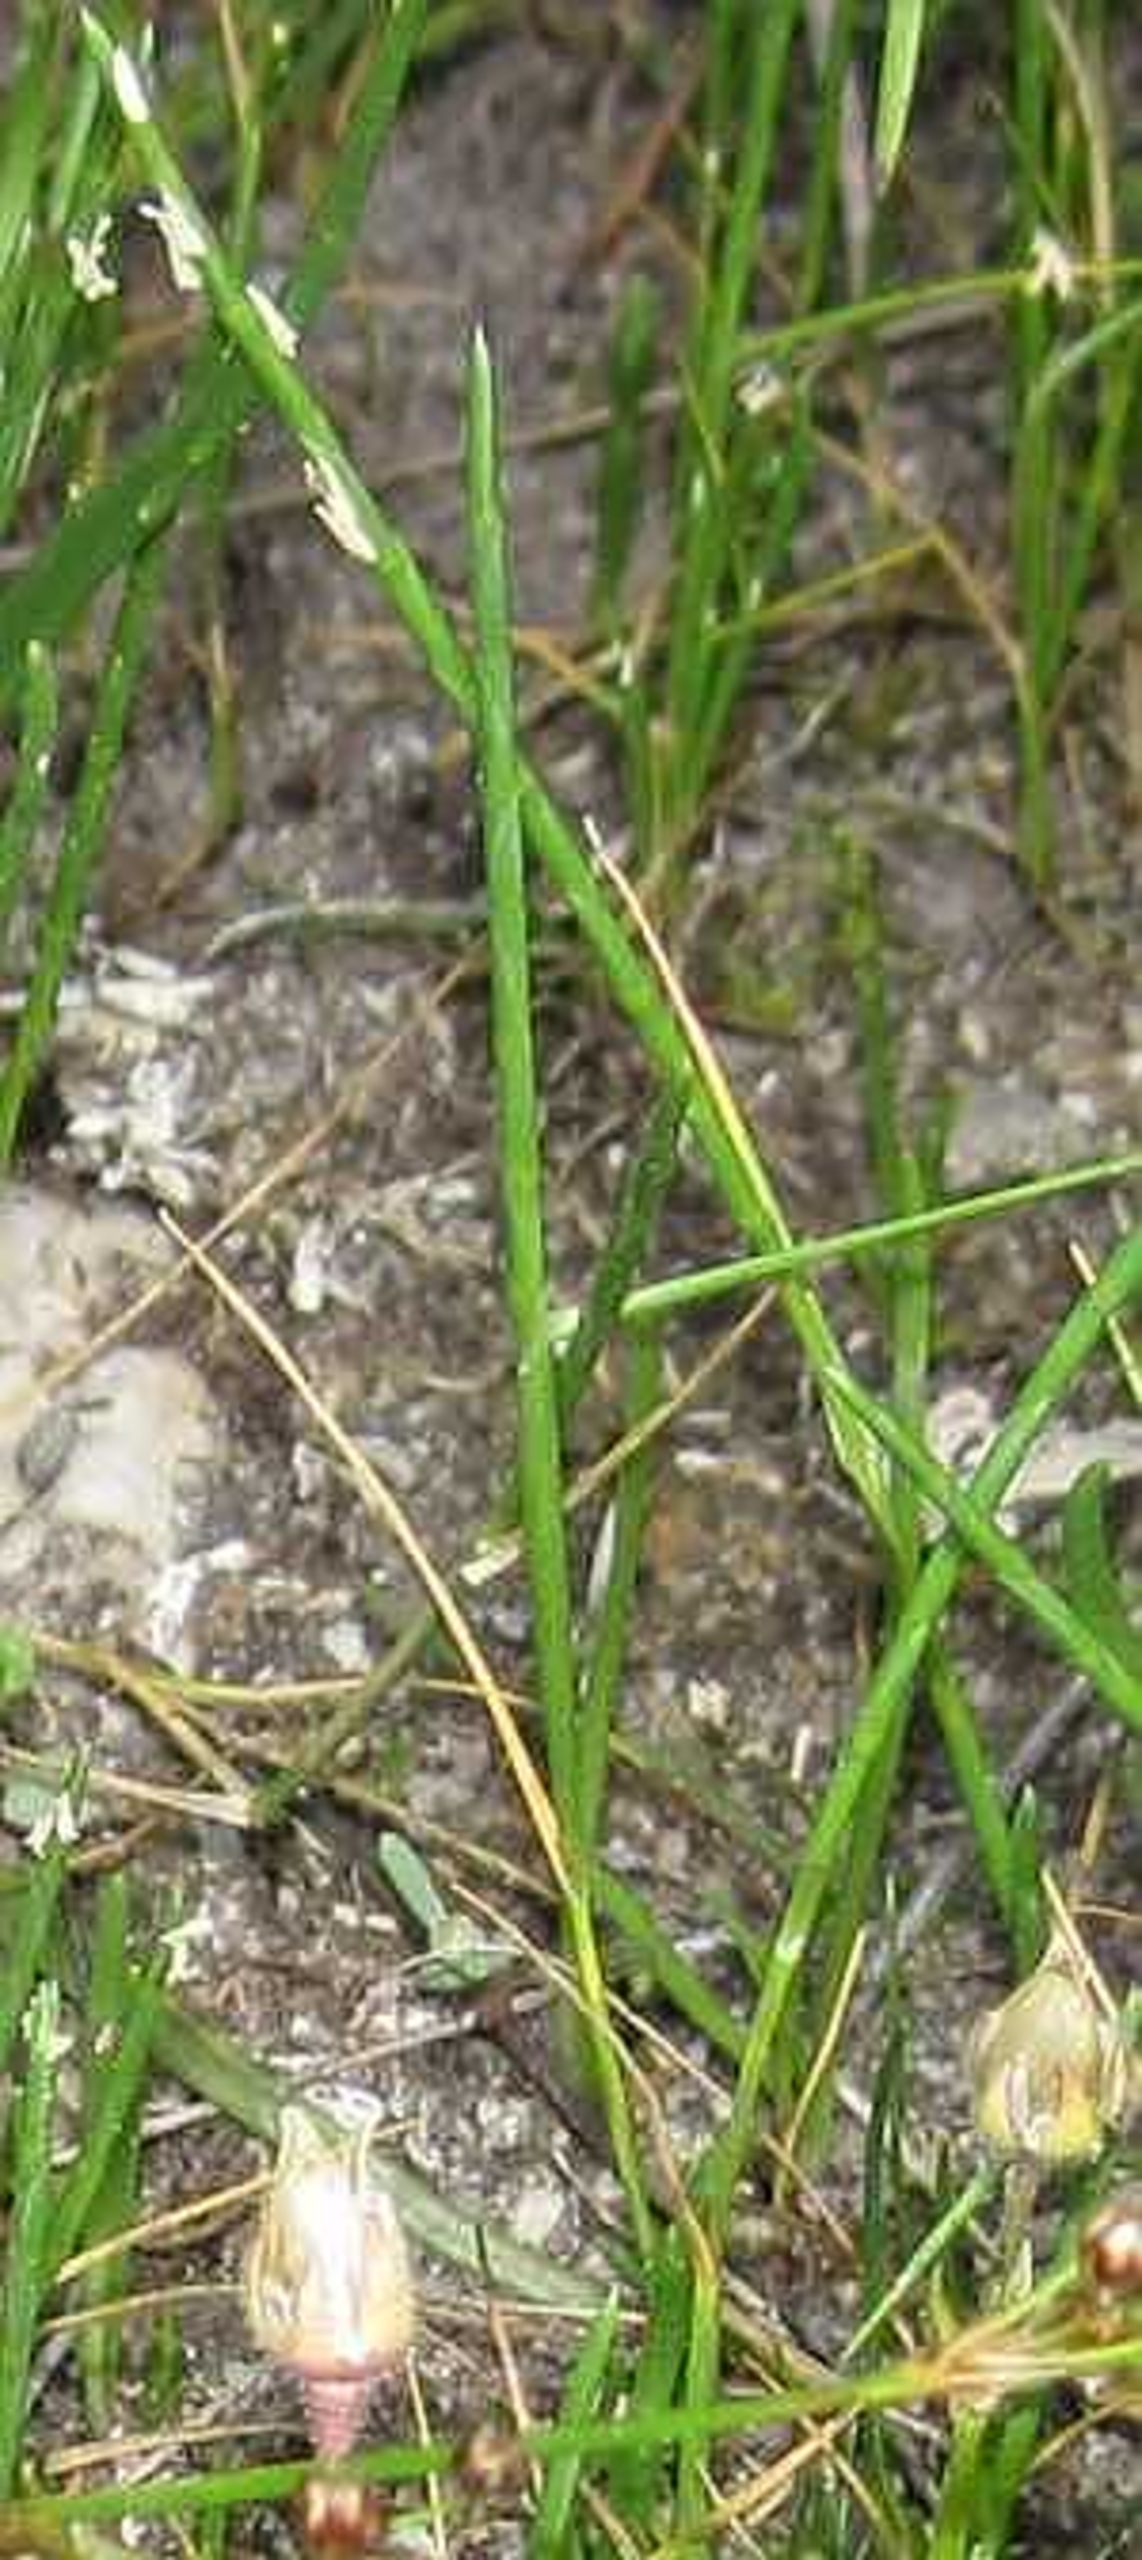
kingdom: Plantae
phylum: Tracheophyta
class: Liliopsida
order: Poales
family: Poaceae
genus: Parapholis
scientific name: Parapholis strigosa
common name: Spidshale
